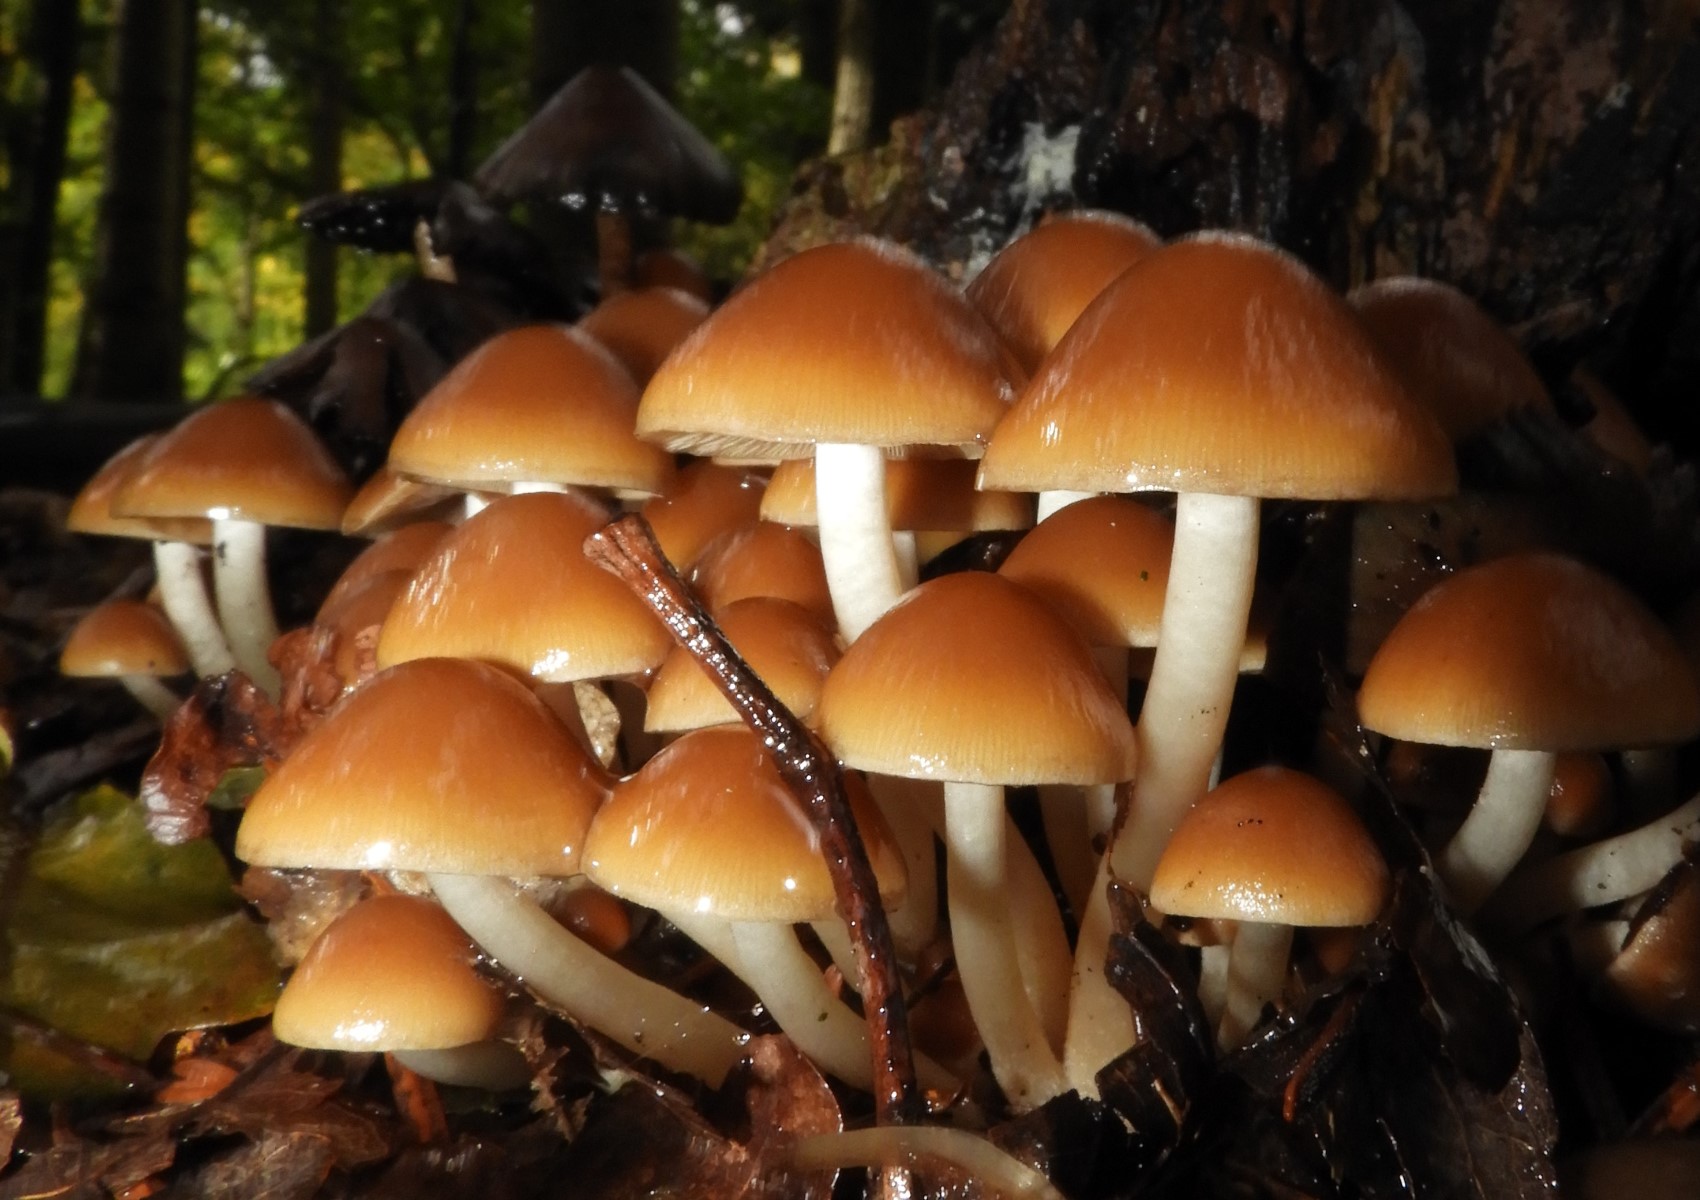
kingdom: Fungi
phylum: Basidiomycota
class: Agaricomycetes
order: Agaricales
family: Psathyrellaceae
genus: Psathyrella
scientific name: Psathyrella piluliformis
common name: lysstokket mørkhat
